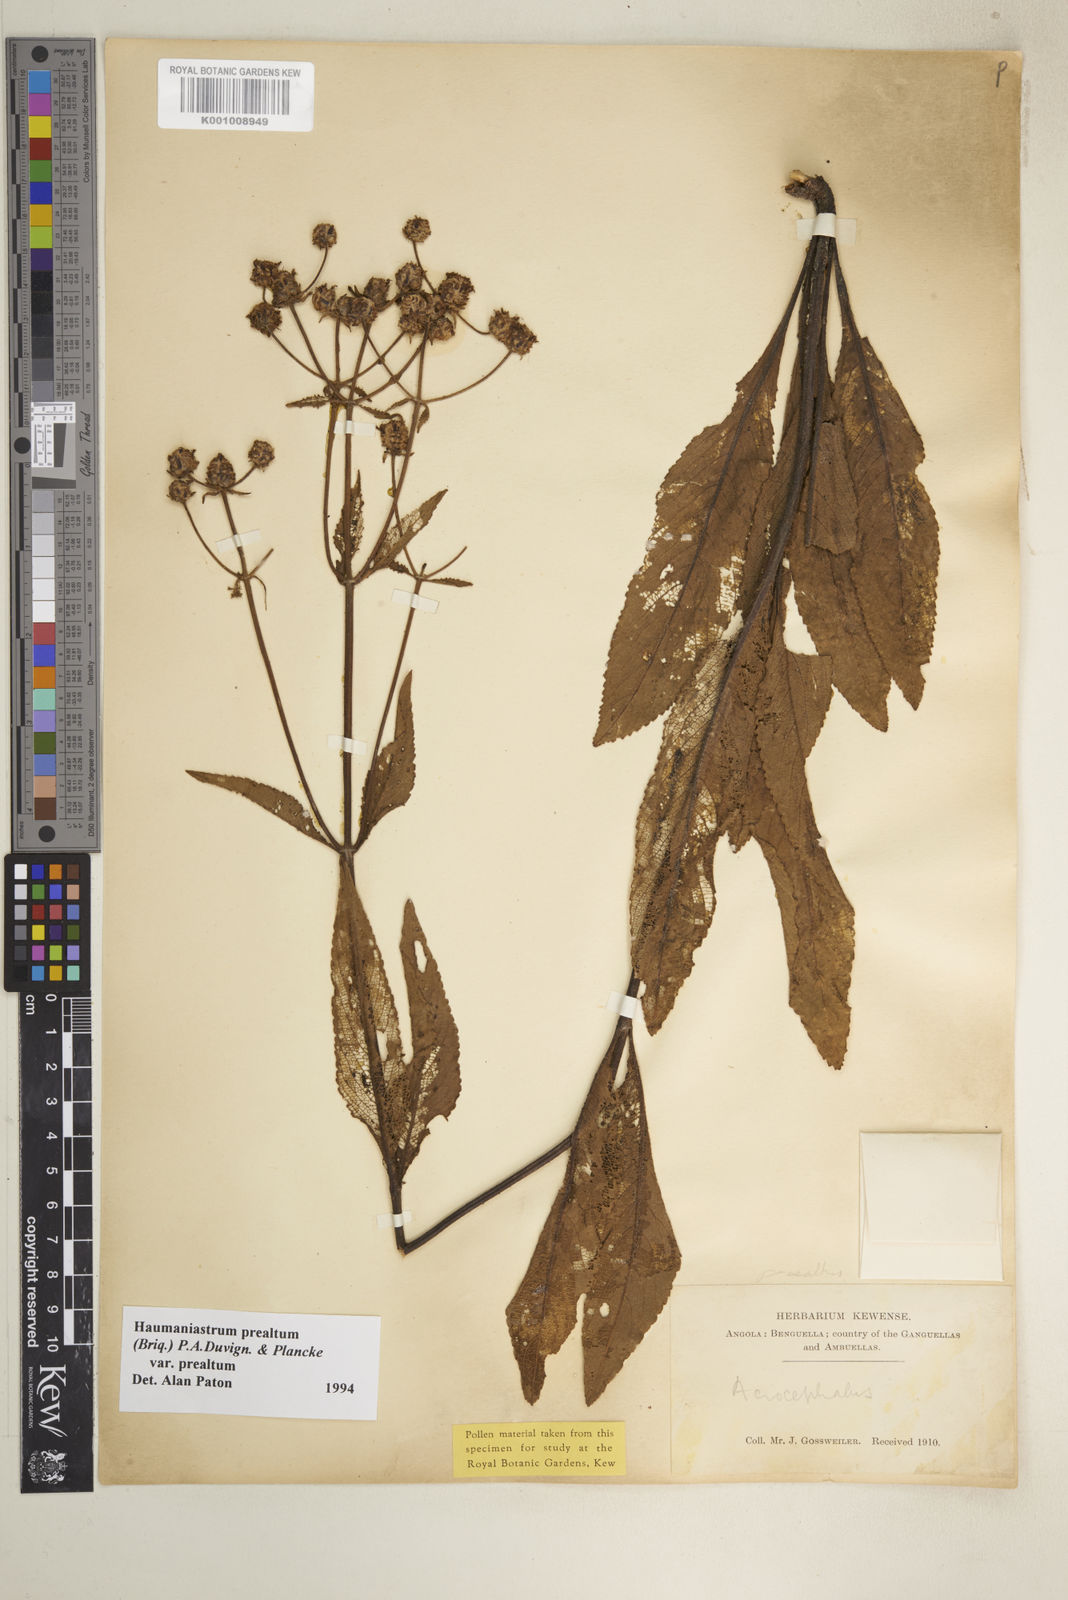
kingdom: Plantae
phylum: Tracheophyta
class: Magnoliopsida
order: Lamiales
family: Lamiaceae
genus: Haumaniastrum
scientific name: Haumaniastrum
